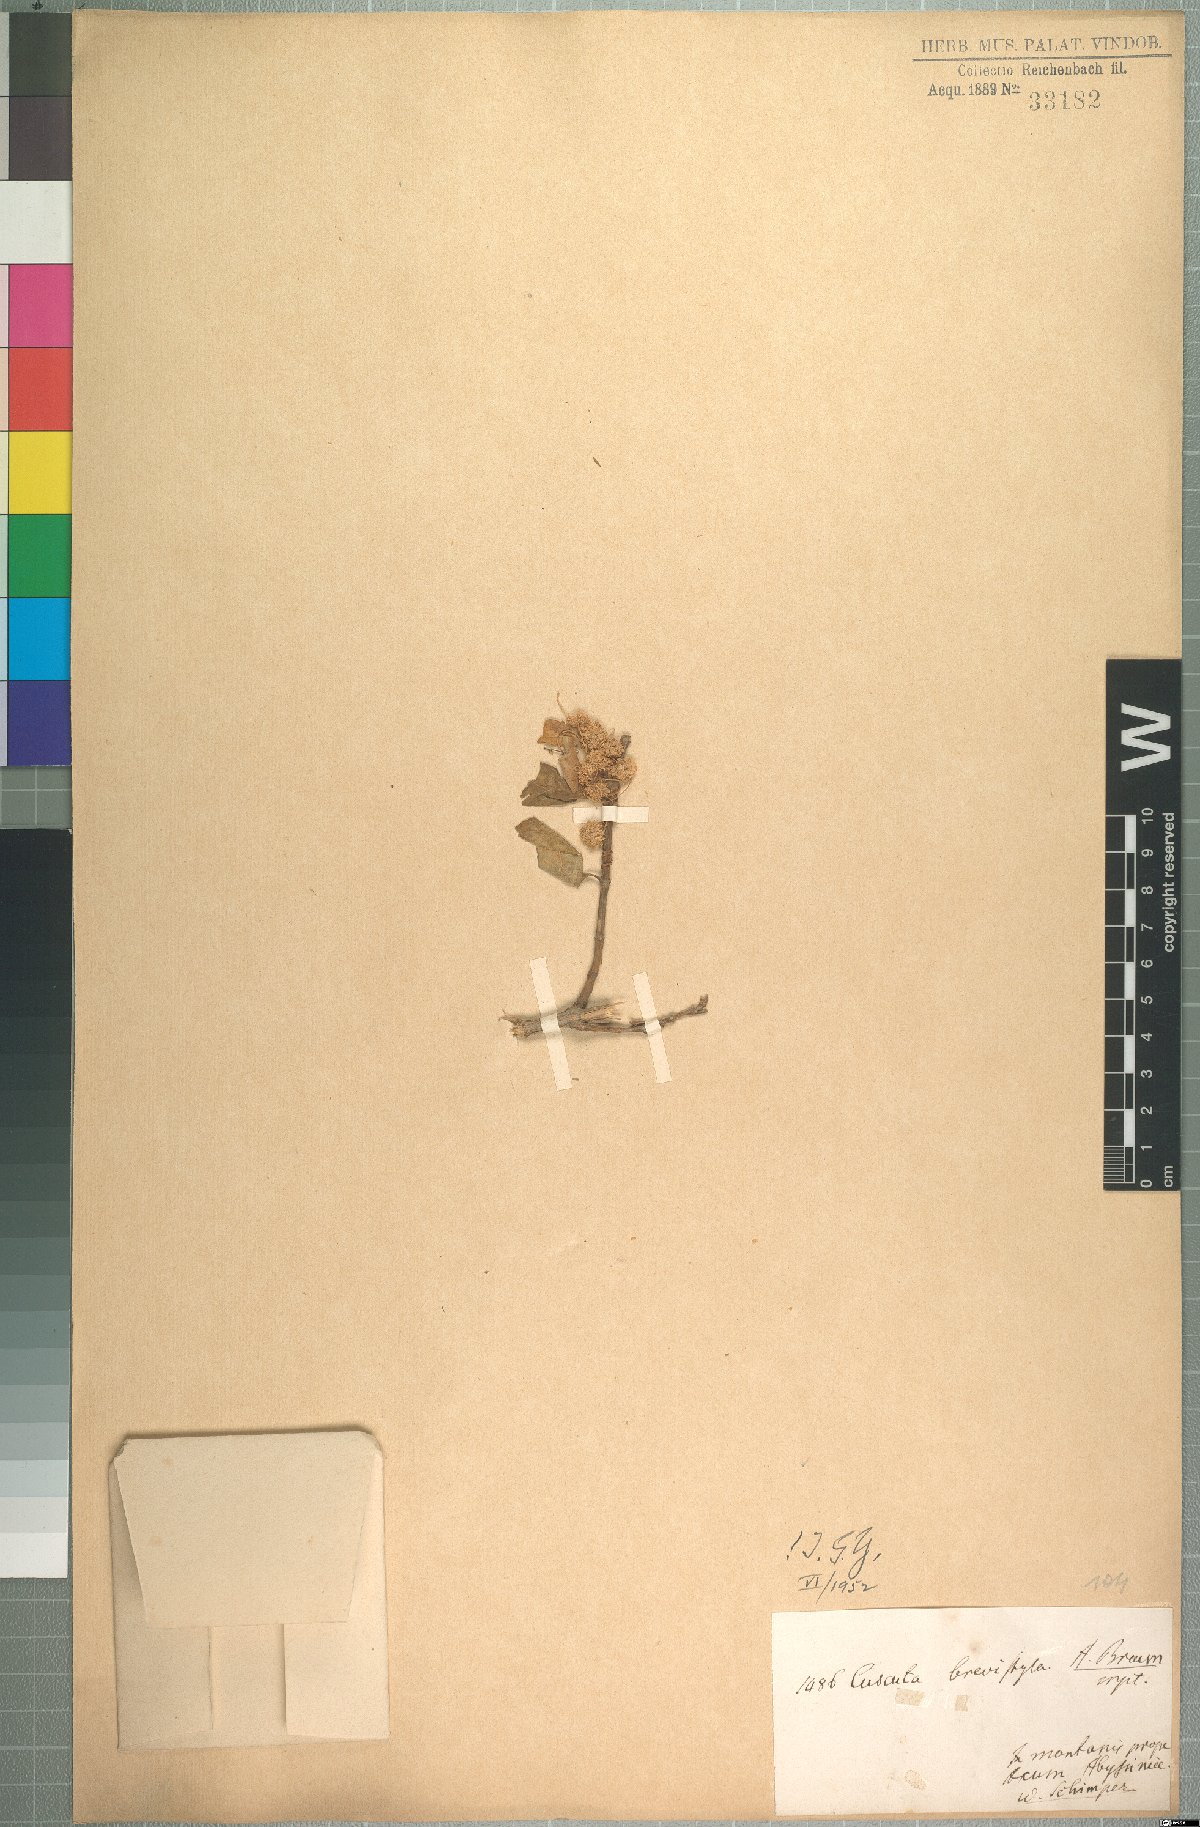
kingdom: Plantae
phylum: Tracheophyta
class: Magnoliopsida
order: Solanales
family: Convolvulaceae
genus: Cuscuta
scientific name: Cuscuta planiflora
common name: Small-seed alfalfa dodder
